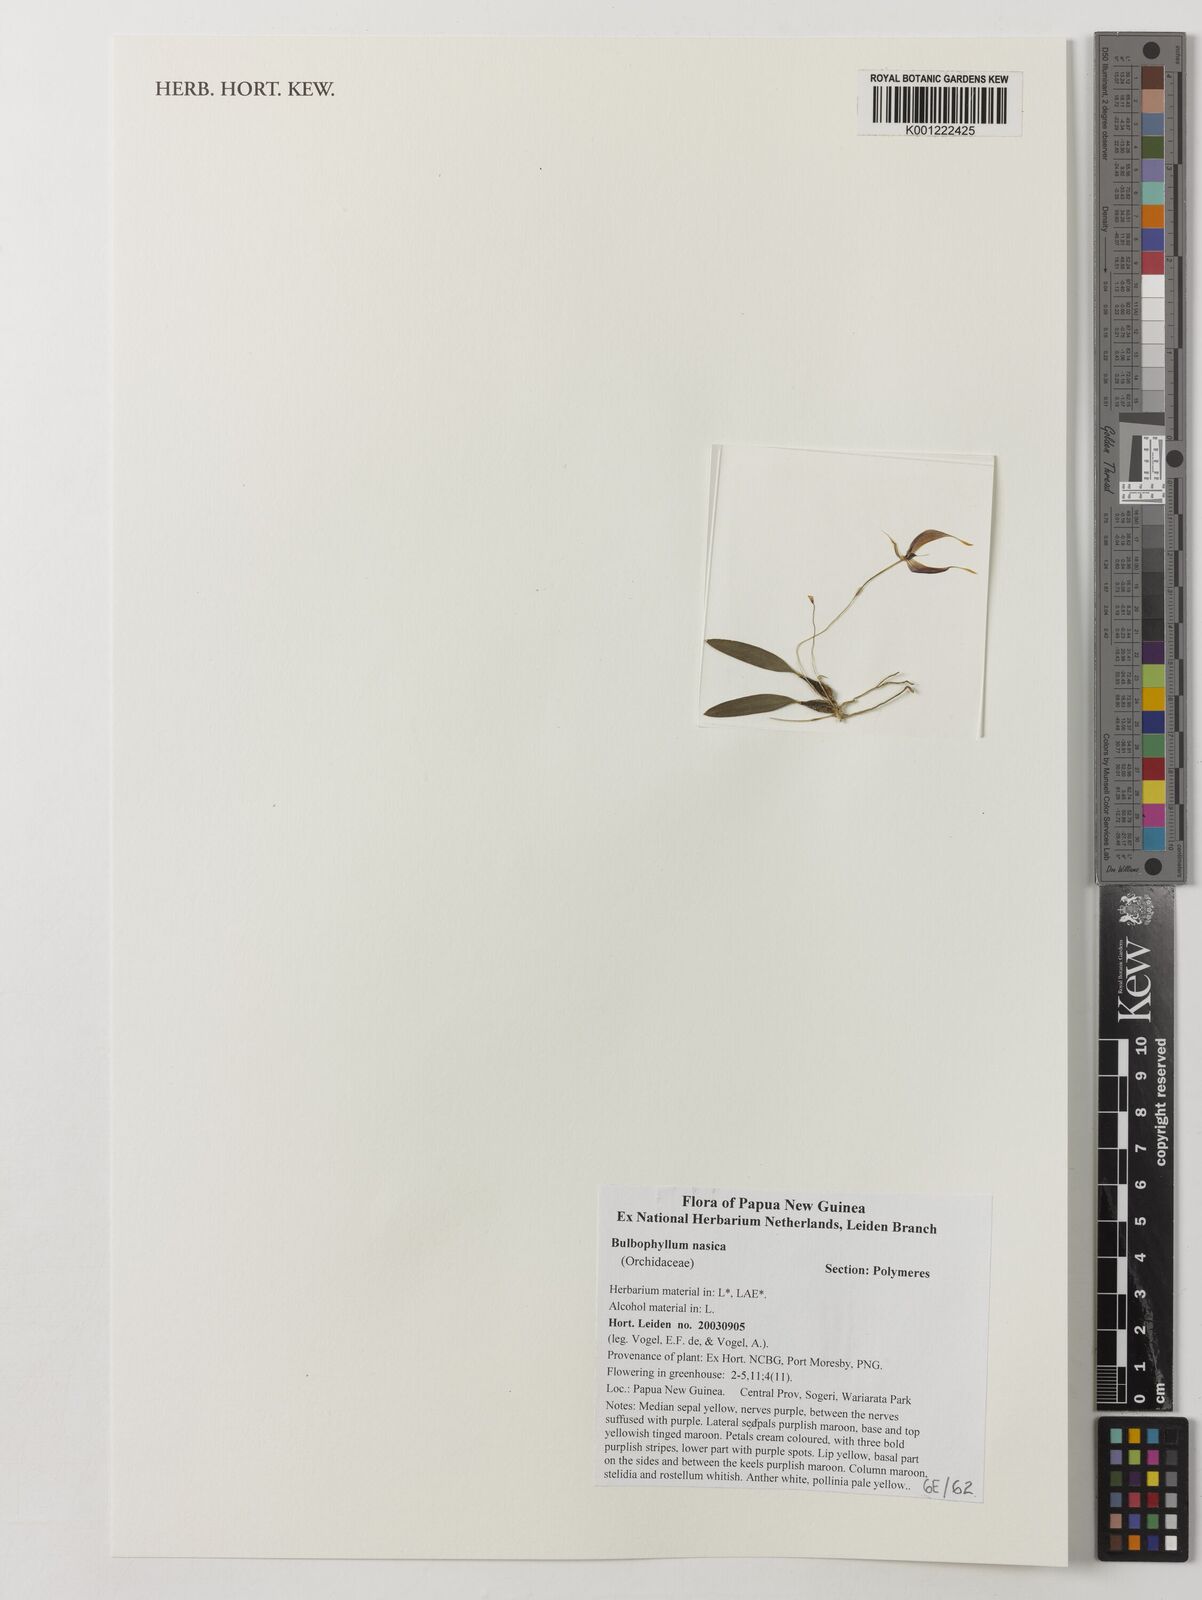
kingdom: Plantae
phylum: Tracheophyta
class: Liliopsida
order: Asparagales
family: Orchidaceae
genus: Bulbophyllum
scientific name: Bulbophyllum nasica
